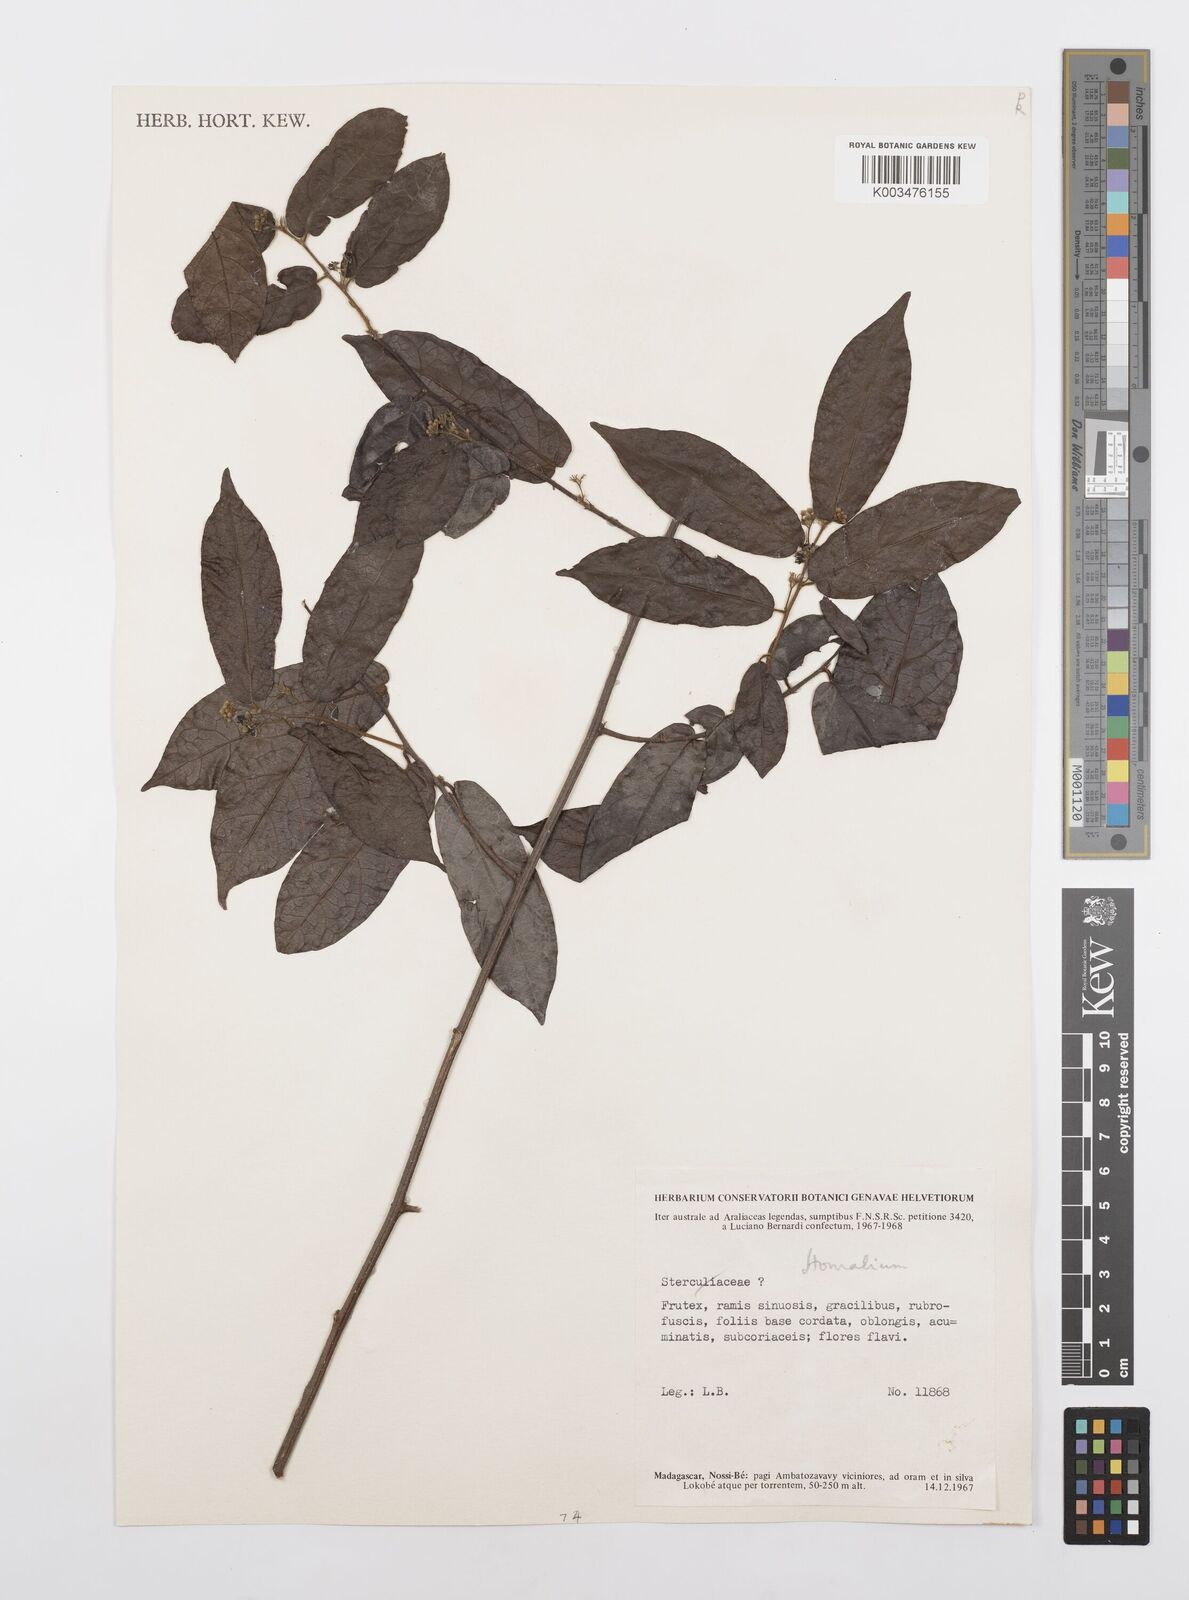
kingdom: Plantae
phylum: Tracheophyta
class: Magnoliopsida
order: Malpighiales
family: Salicaceae
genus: Homalium
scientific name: Homalium
